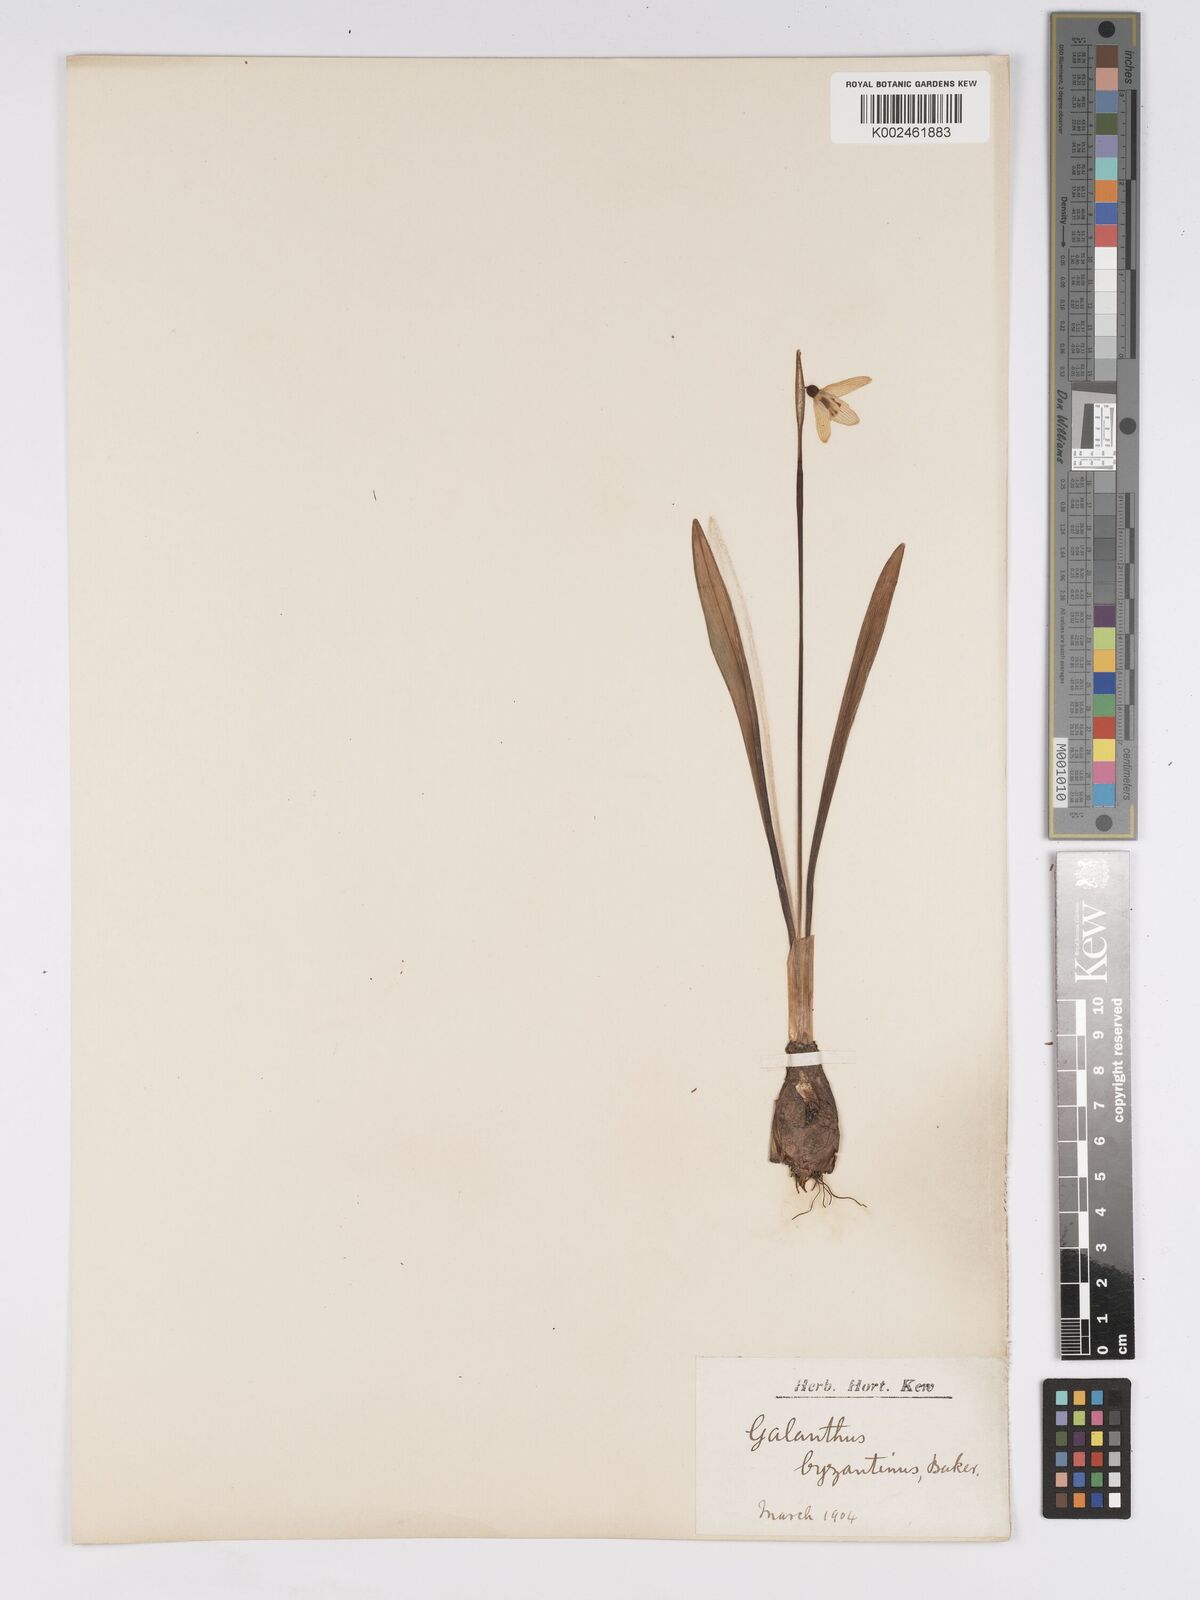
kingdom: Plantae
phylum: Tracheophyta
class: Liliopsida
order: Asparagales
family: Amaryllidaceae
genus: Galanthus
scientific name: Galanthus
